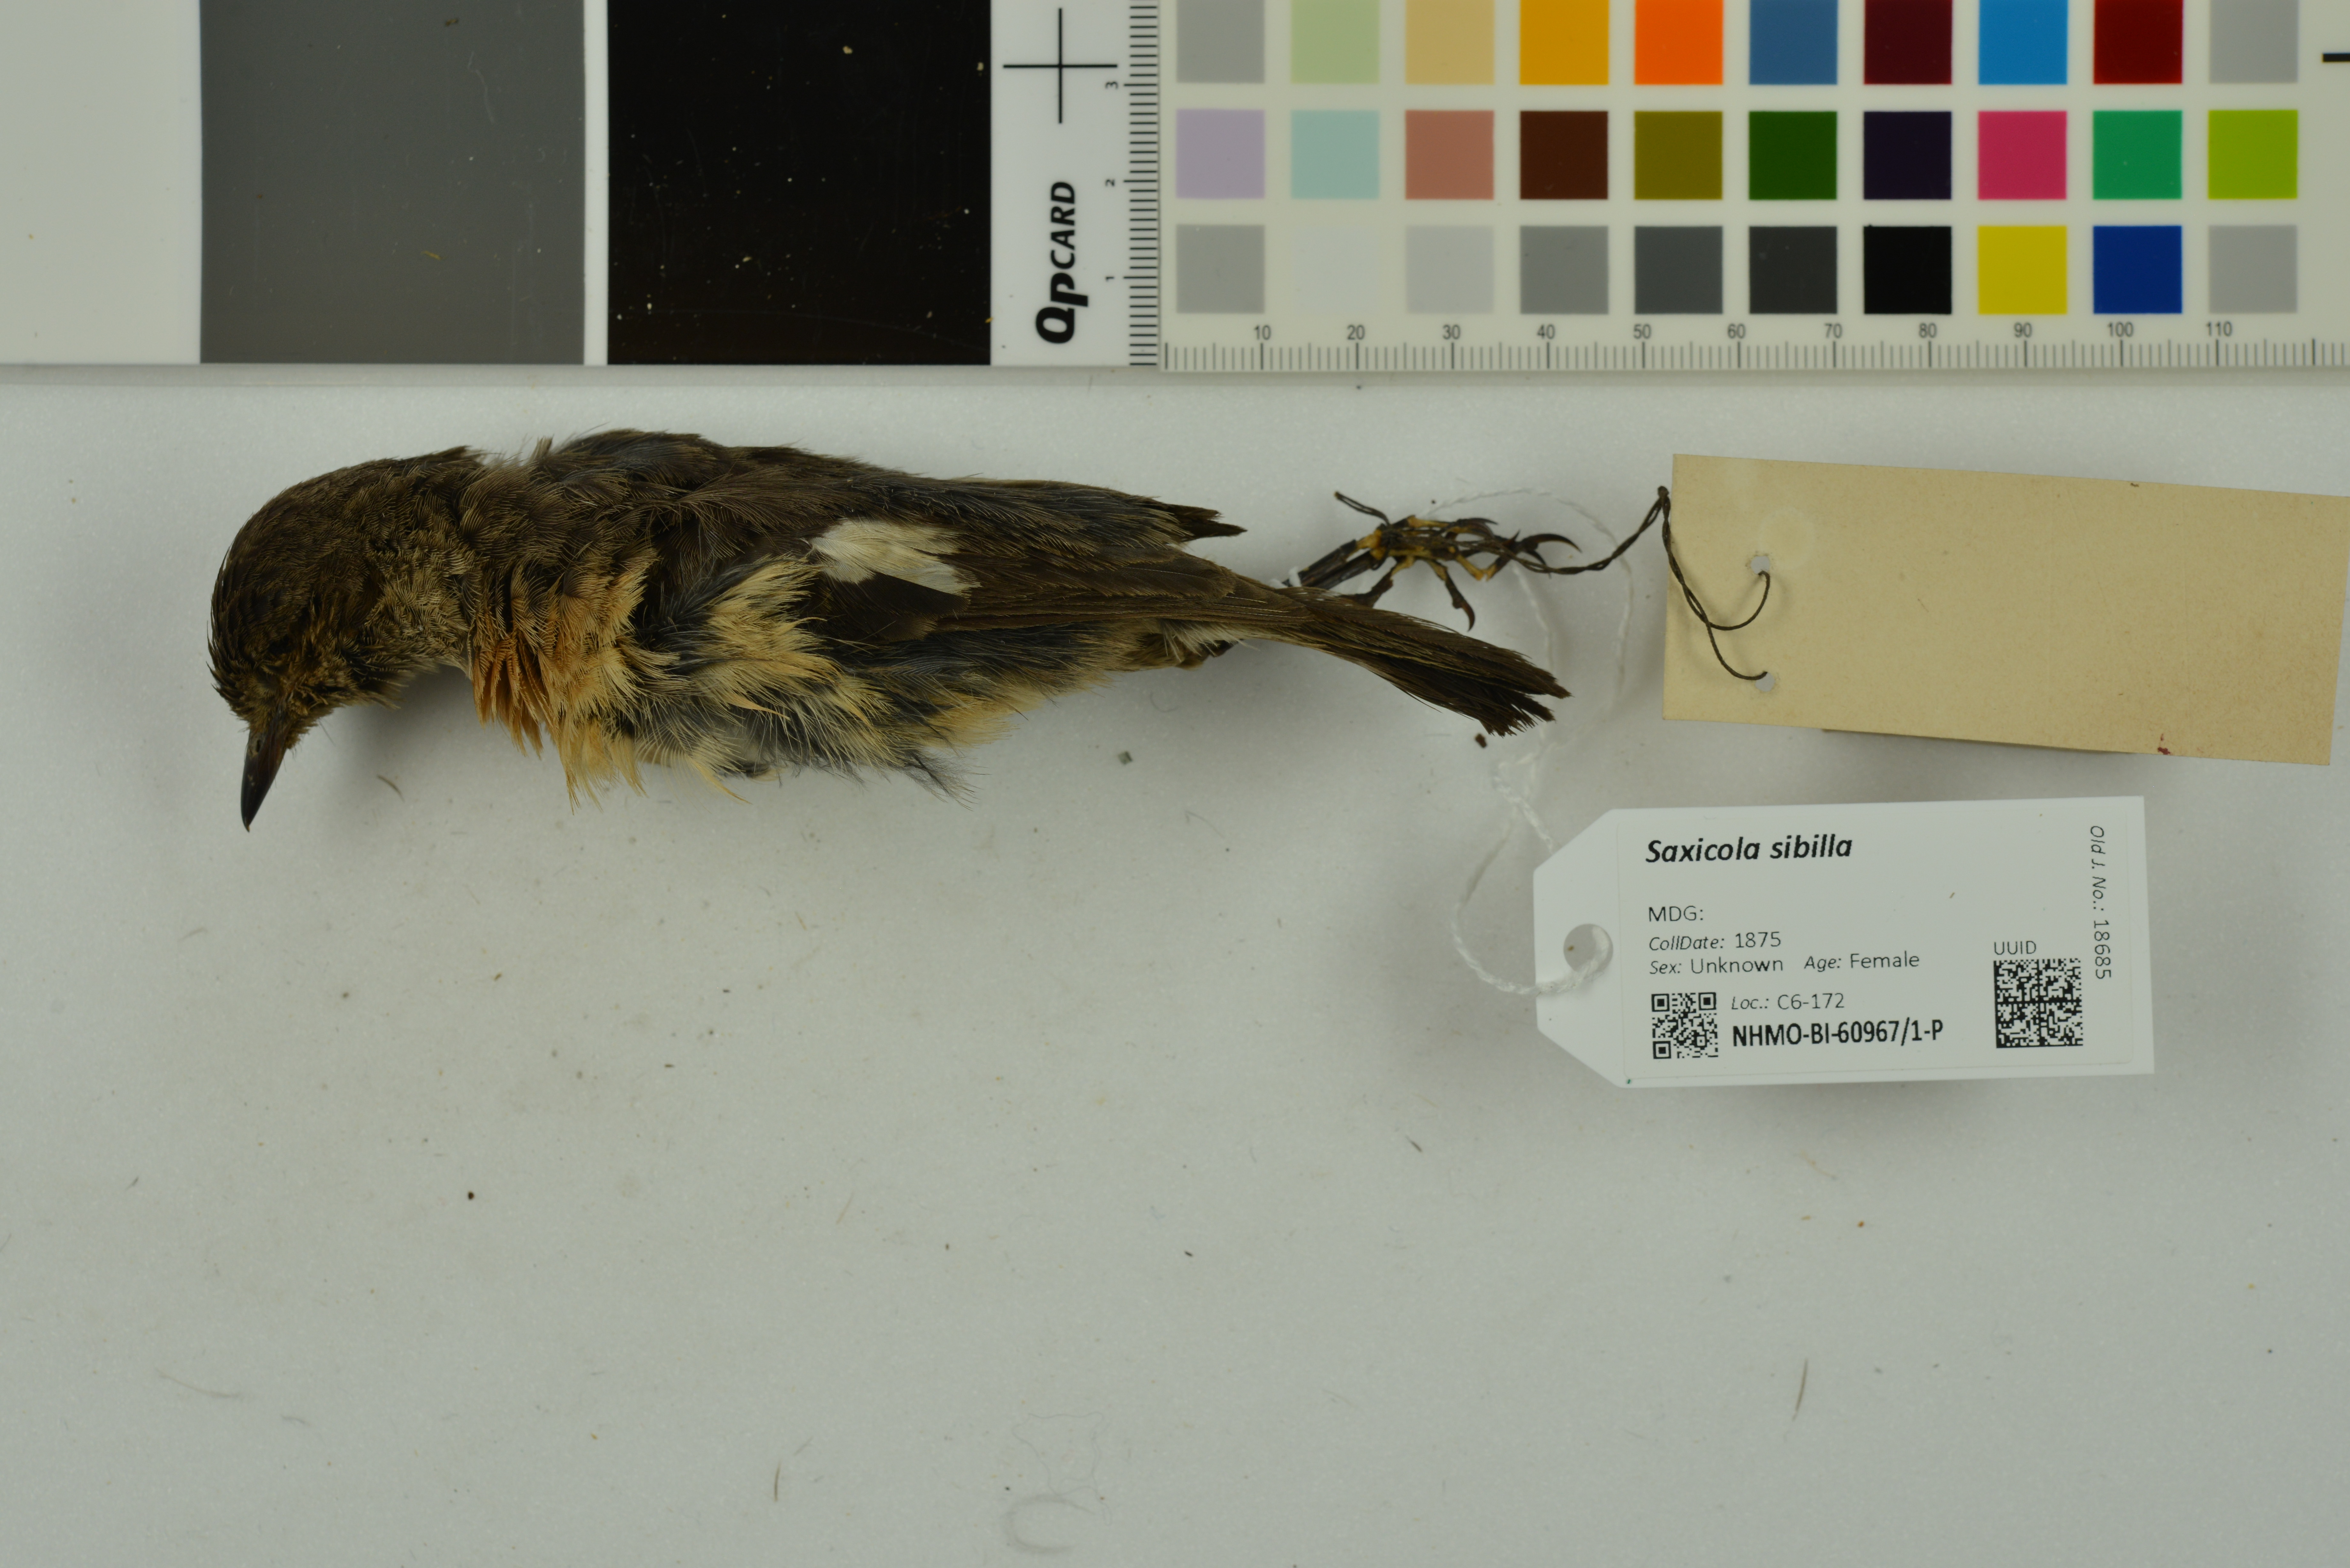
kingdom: Animalia
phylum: Chordata
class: Aves
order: Passeriformes
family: Muscicapidae
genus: Saxicola
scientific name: Saxicola sibilla
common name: Madagascan stonechat
